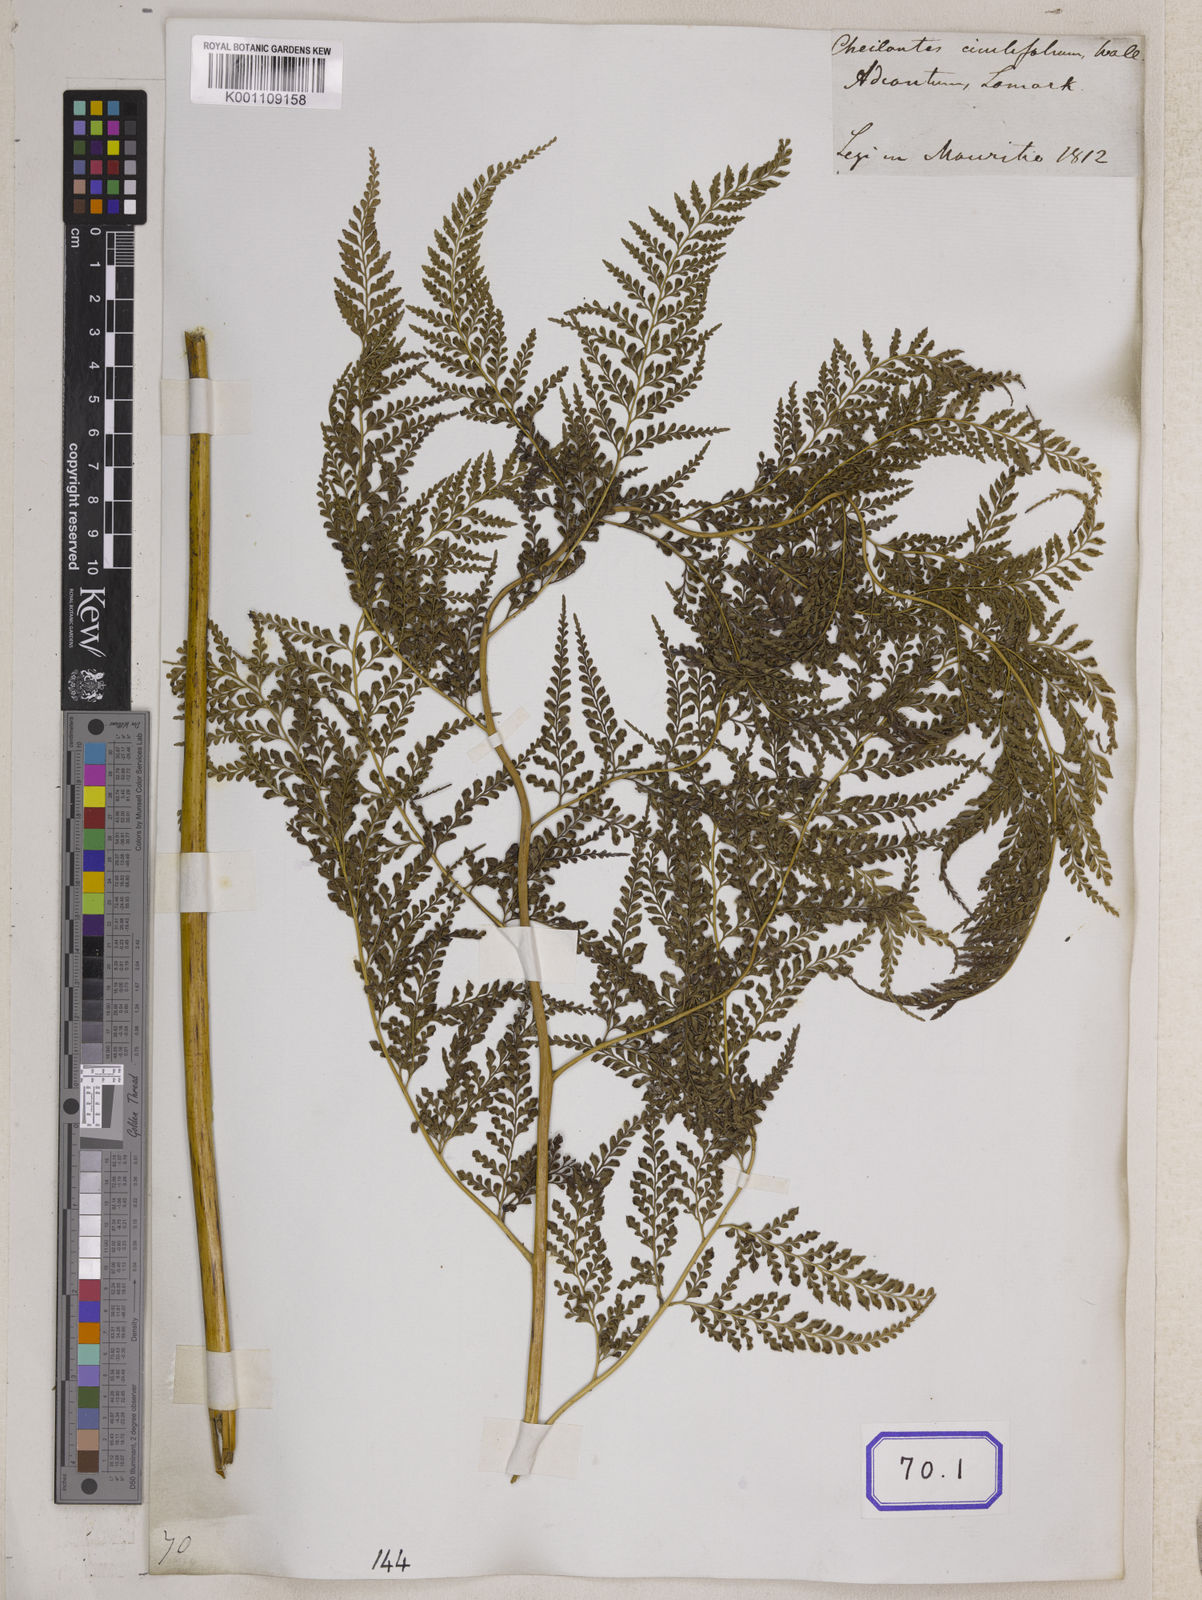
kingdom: Plantae
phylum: Tracheophyta
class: Polypodiopsida
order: Polypodiales
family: Pteridaceae
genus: Cheilanthes
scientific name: Cheilanthes
